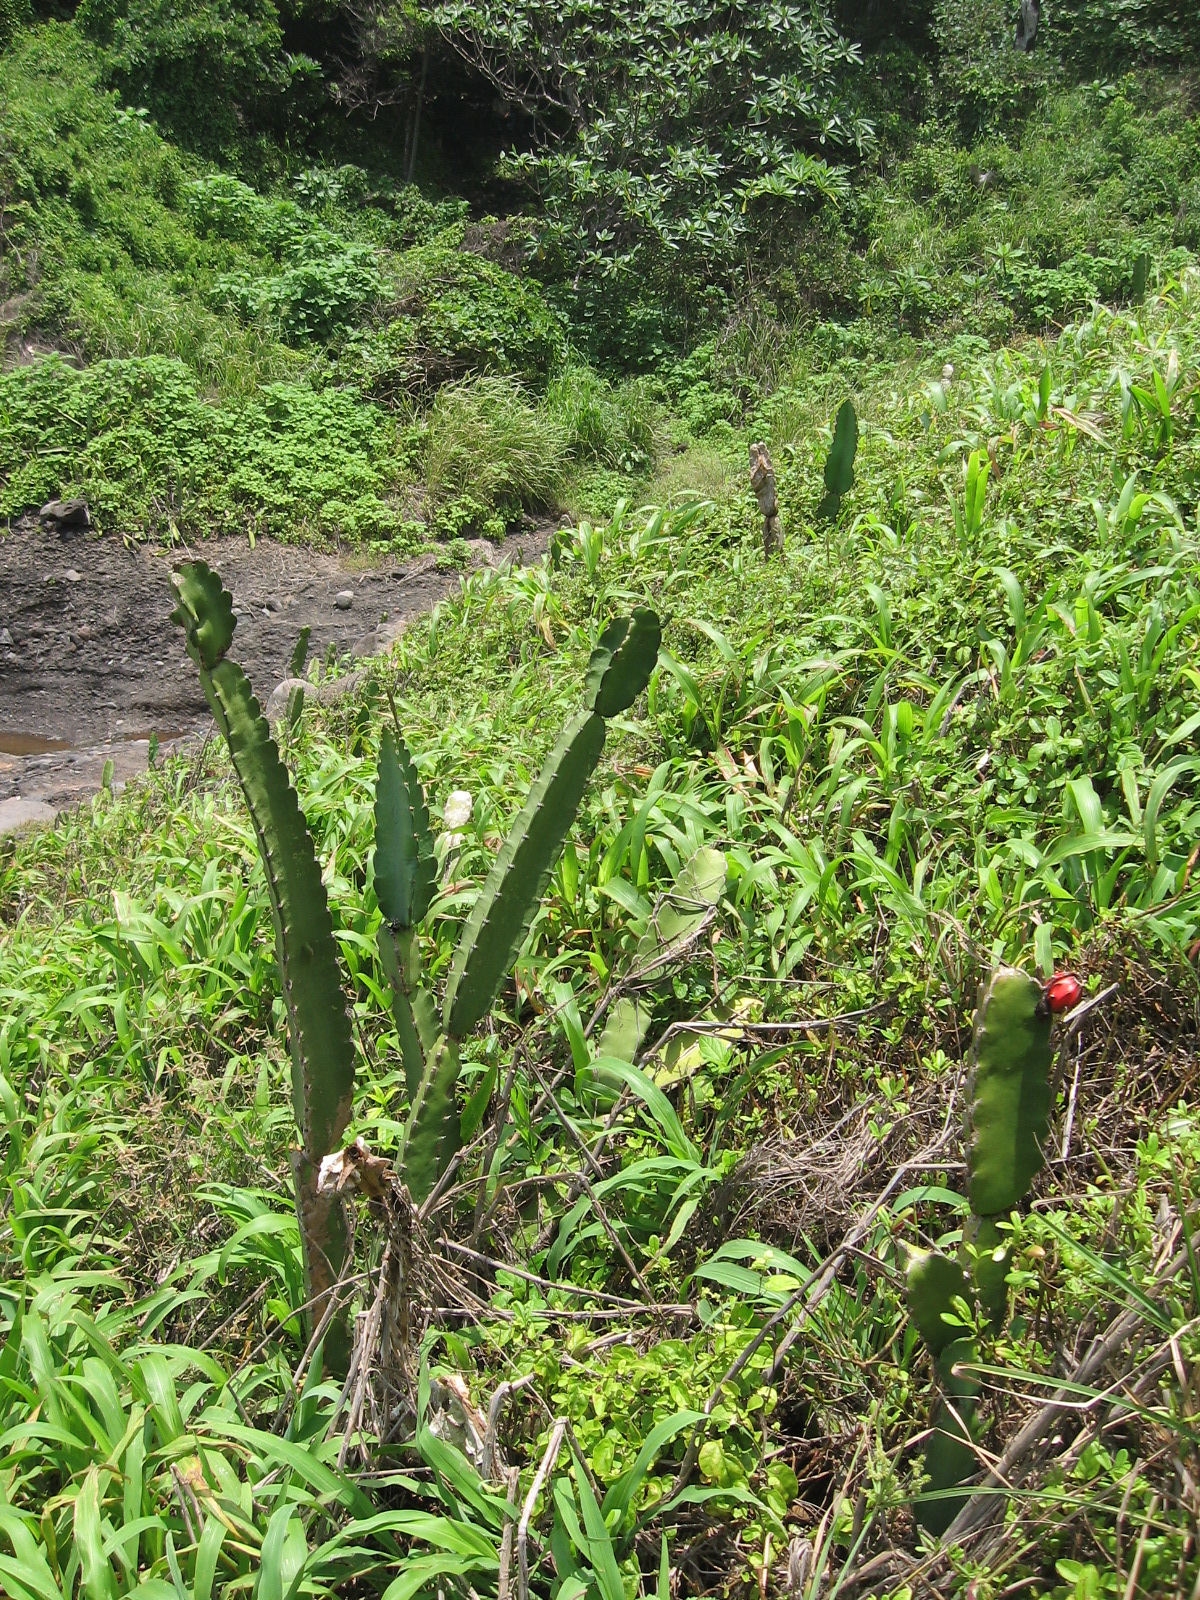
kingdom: Plantae
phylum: Tracheophyta
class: Magnoliopsida
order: Caryophyllales
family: Cactaceae
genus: Acanthocereus
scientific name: Acanthocereus tetragonus
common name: Triangle cactus
